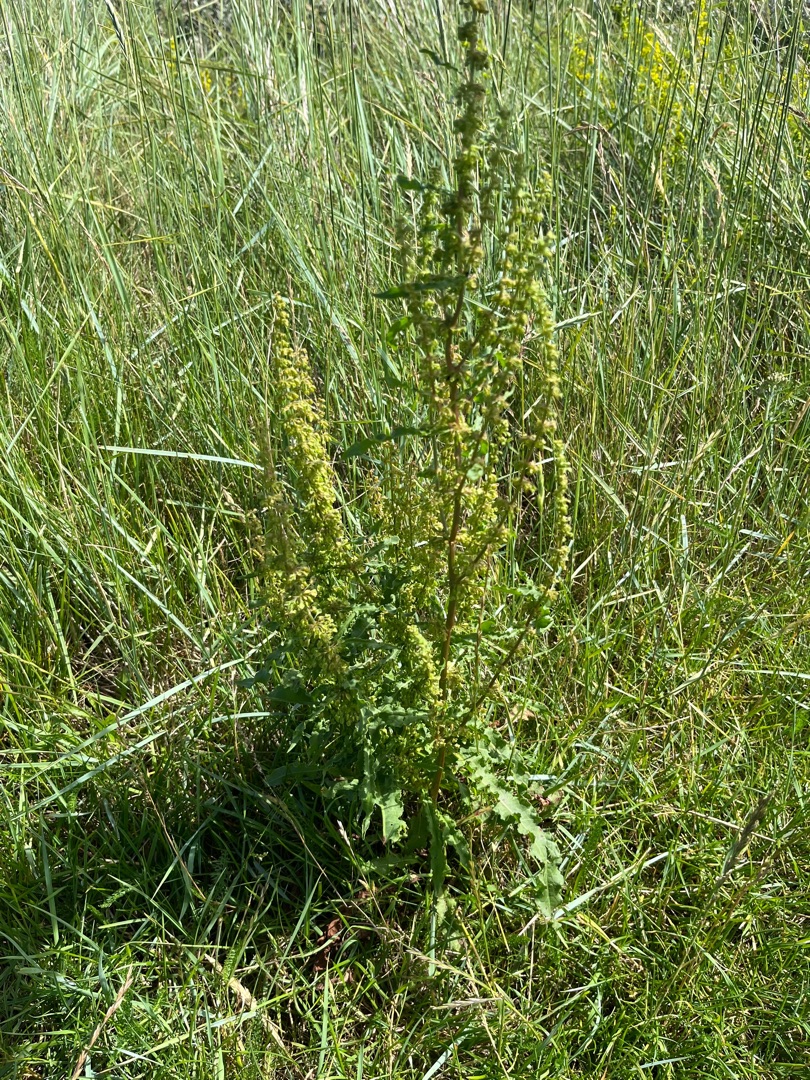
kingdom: Plantae
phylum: Tracheophyta
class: Magnoliopsida
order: Caryophyllales
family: Polygonaceae
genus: Rumex
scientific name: Rumex crispus
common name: Kruset skræppe
